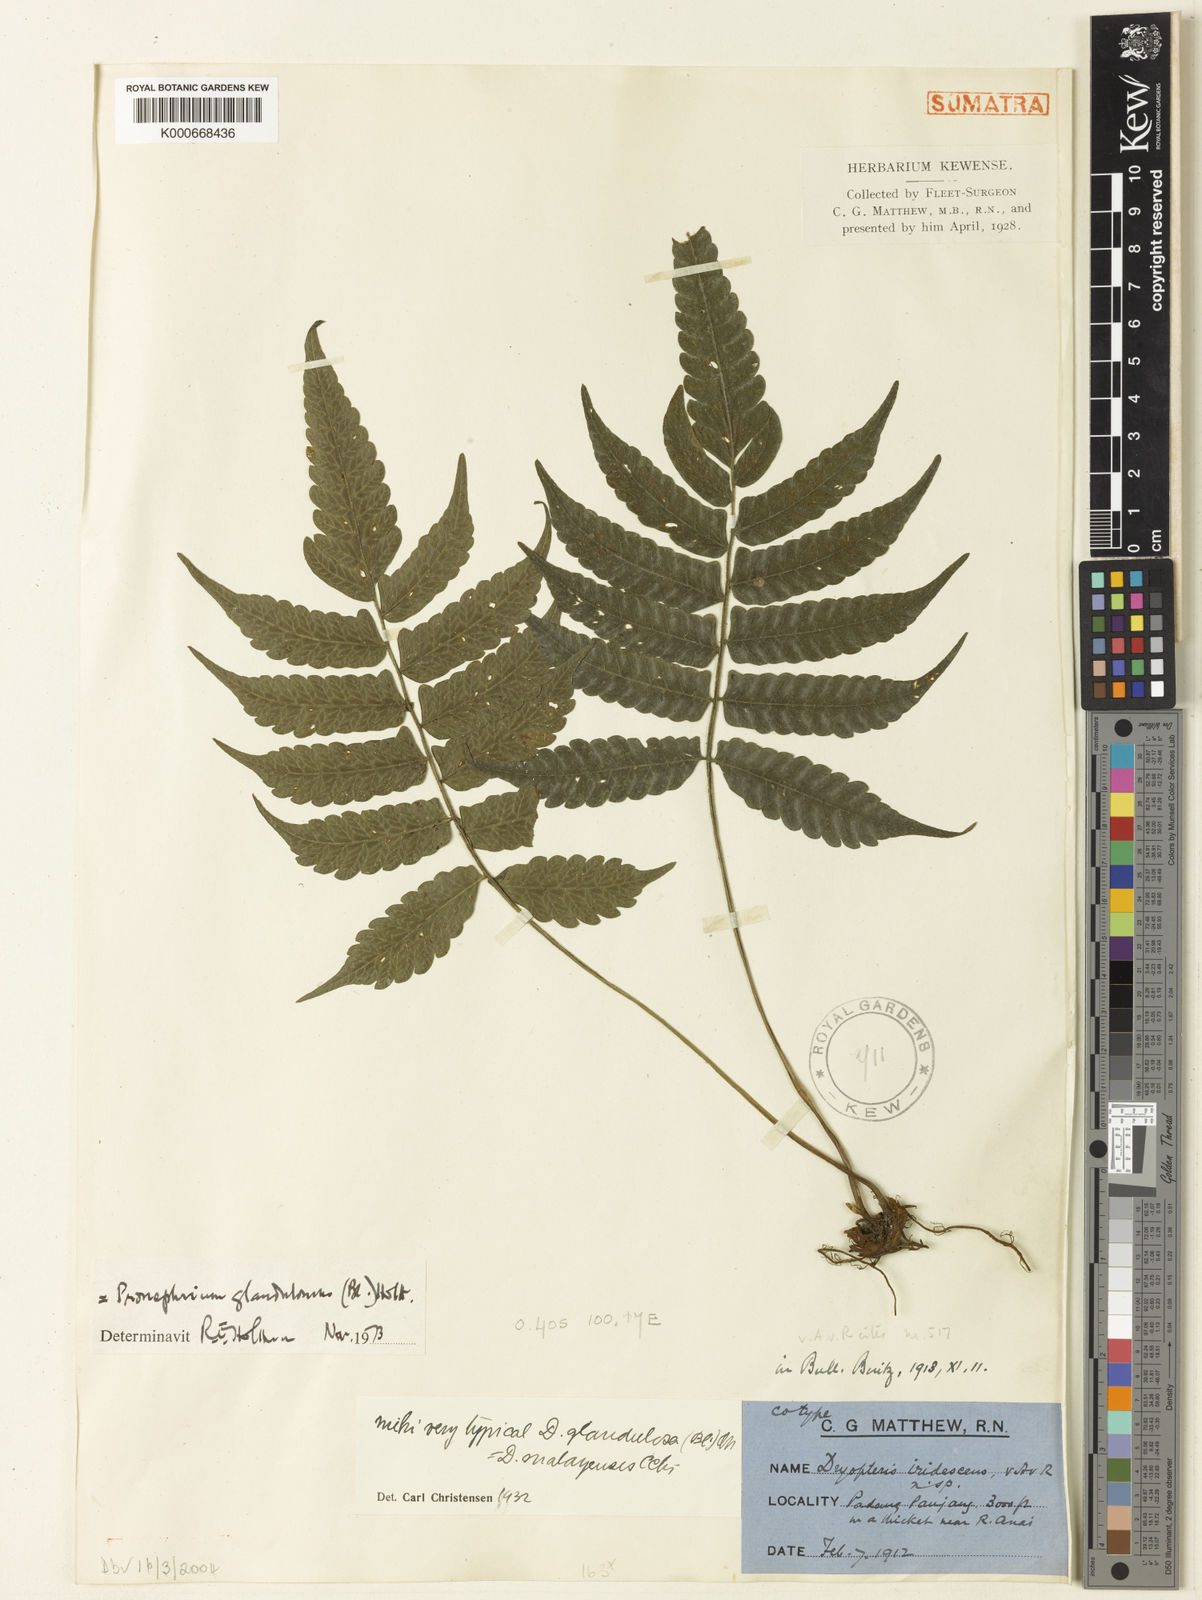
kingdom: Plantae
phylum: Tracheophyta
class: Polypodiopsida
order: Polypodiales
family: Thelypteridaceae
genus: Sphaerostephanos
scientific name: Sphaerostephanos glandulosus
